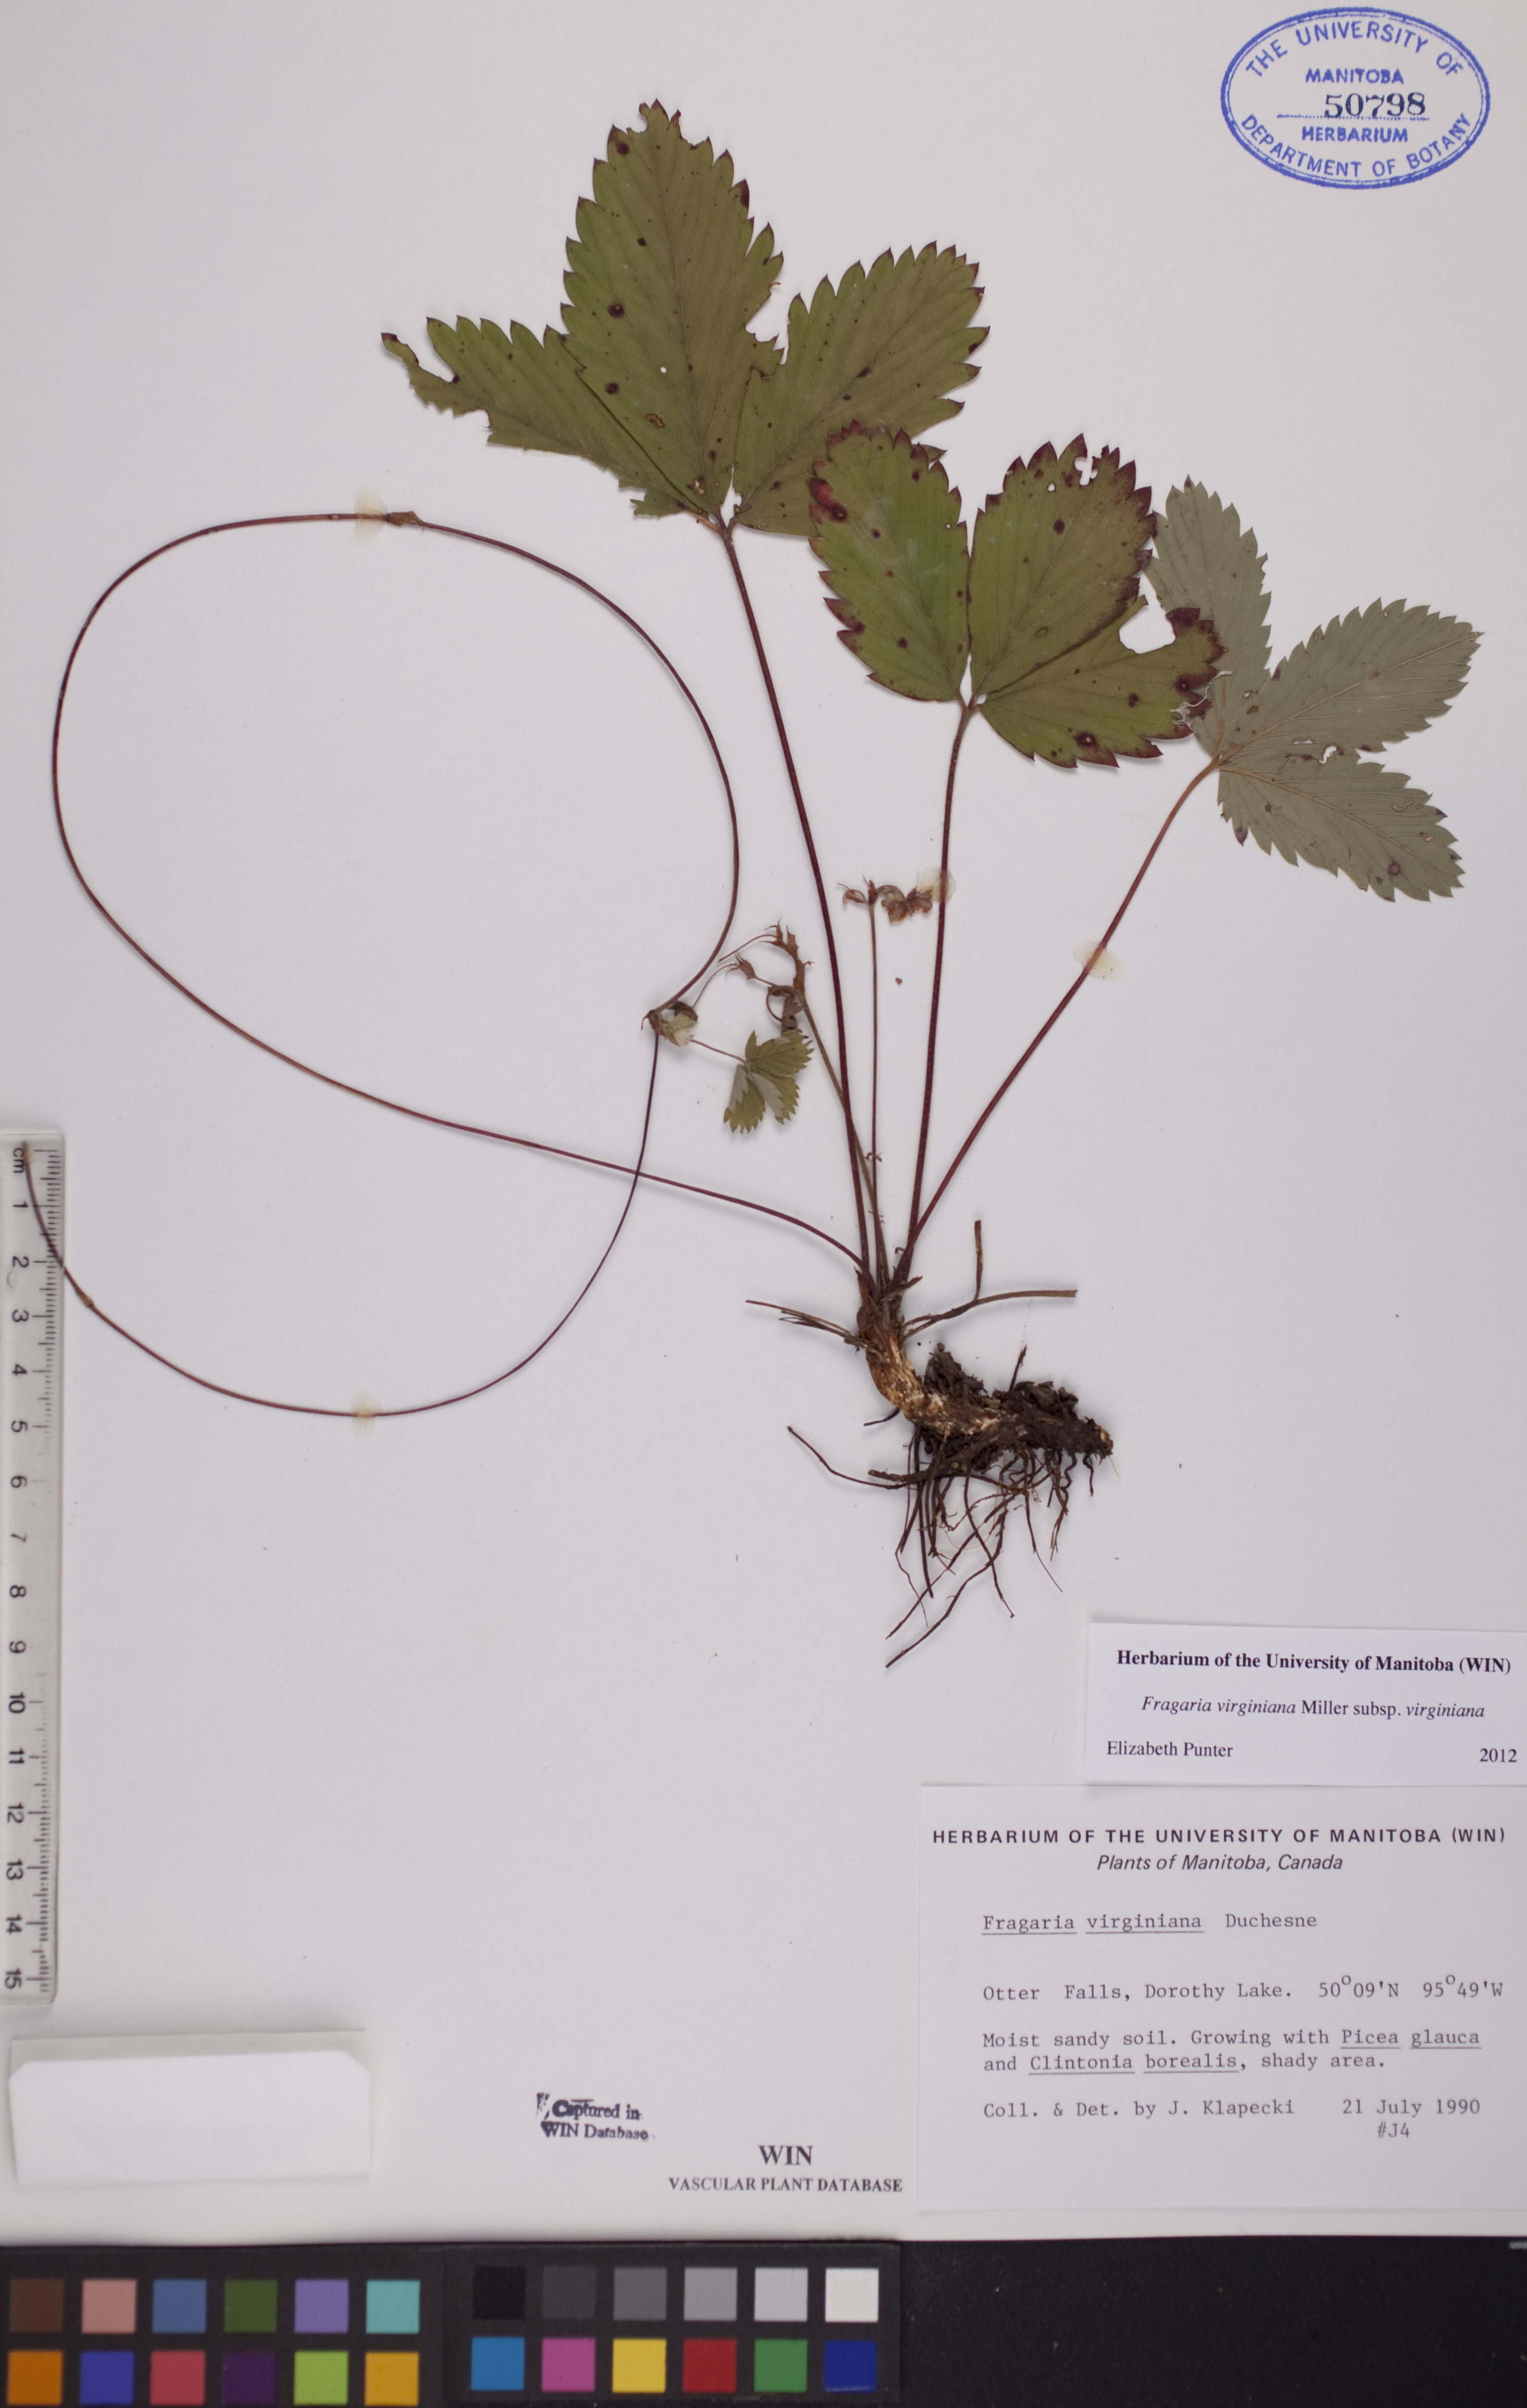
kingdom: Plantae
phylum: Tracheophyta
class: Magnoliopsida
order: Rosales
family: Rosaceae
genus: Fragaria
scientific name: Fragaria virginiana
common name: Thickleaved wild strawberry
